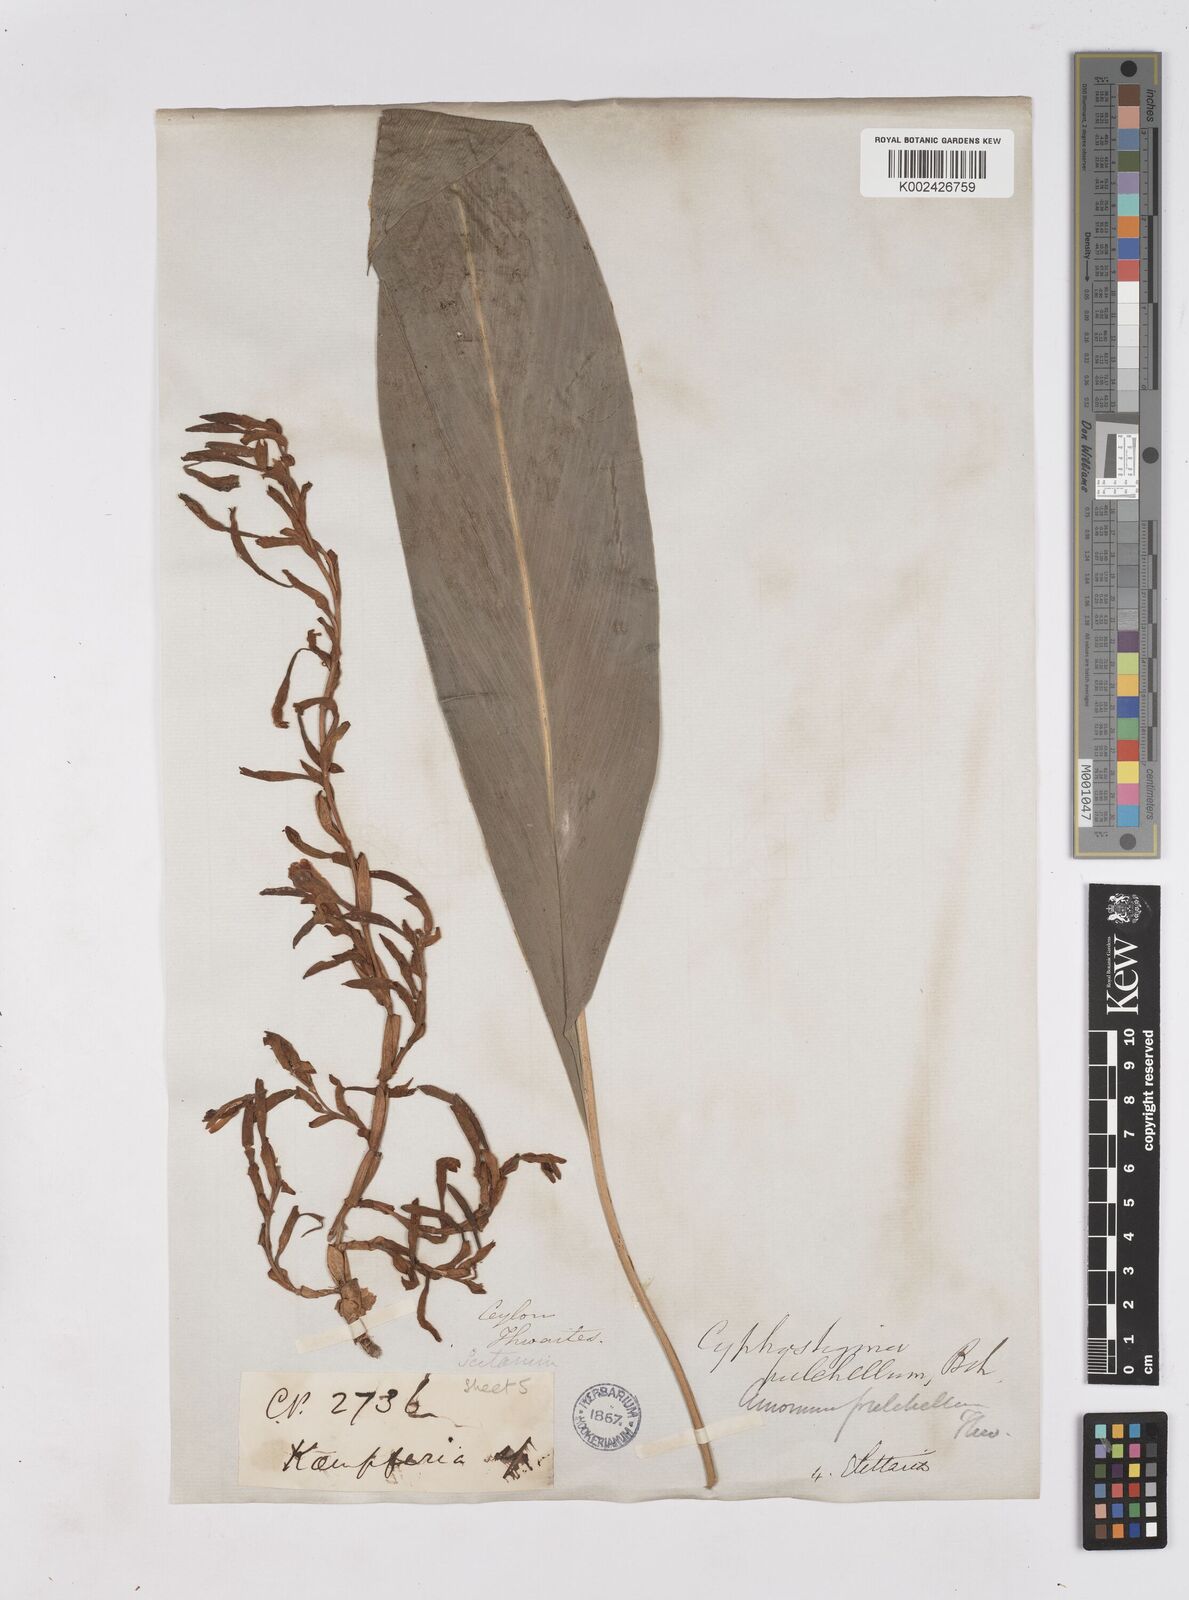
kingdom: Plantae
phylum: Tracheophyta
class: Liliopsida
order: Zingiberales
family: Zingiberaceae
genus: Cyphostigma
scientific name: Cyphostigma pulchellum
